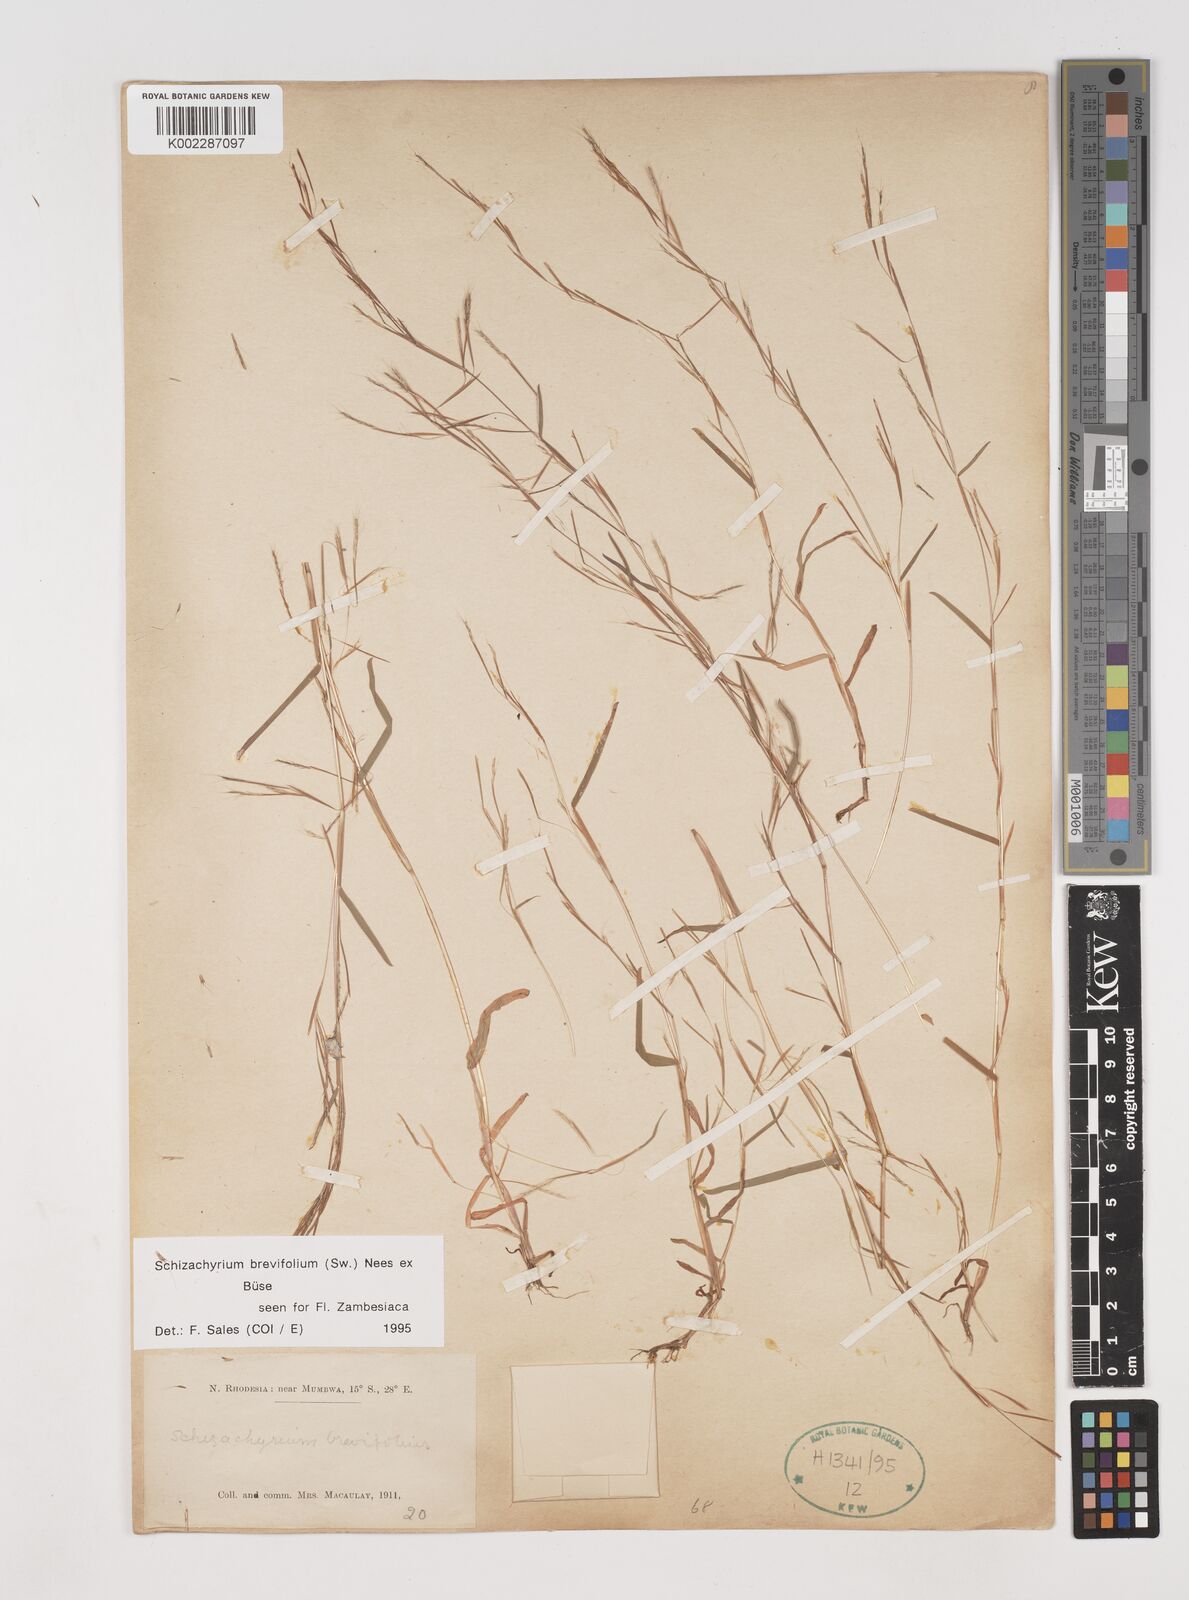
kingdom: Plantae
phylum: Tracheophyta
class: Liliopsida
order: Poales
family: Poaceae
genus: Schizachyrium
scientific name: Schizachyrium brevifolium
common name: Serillo dulce
